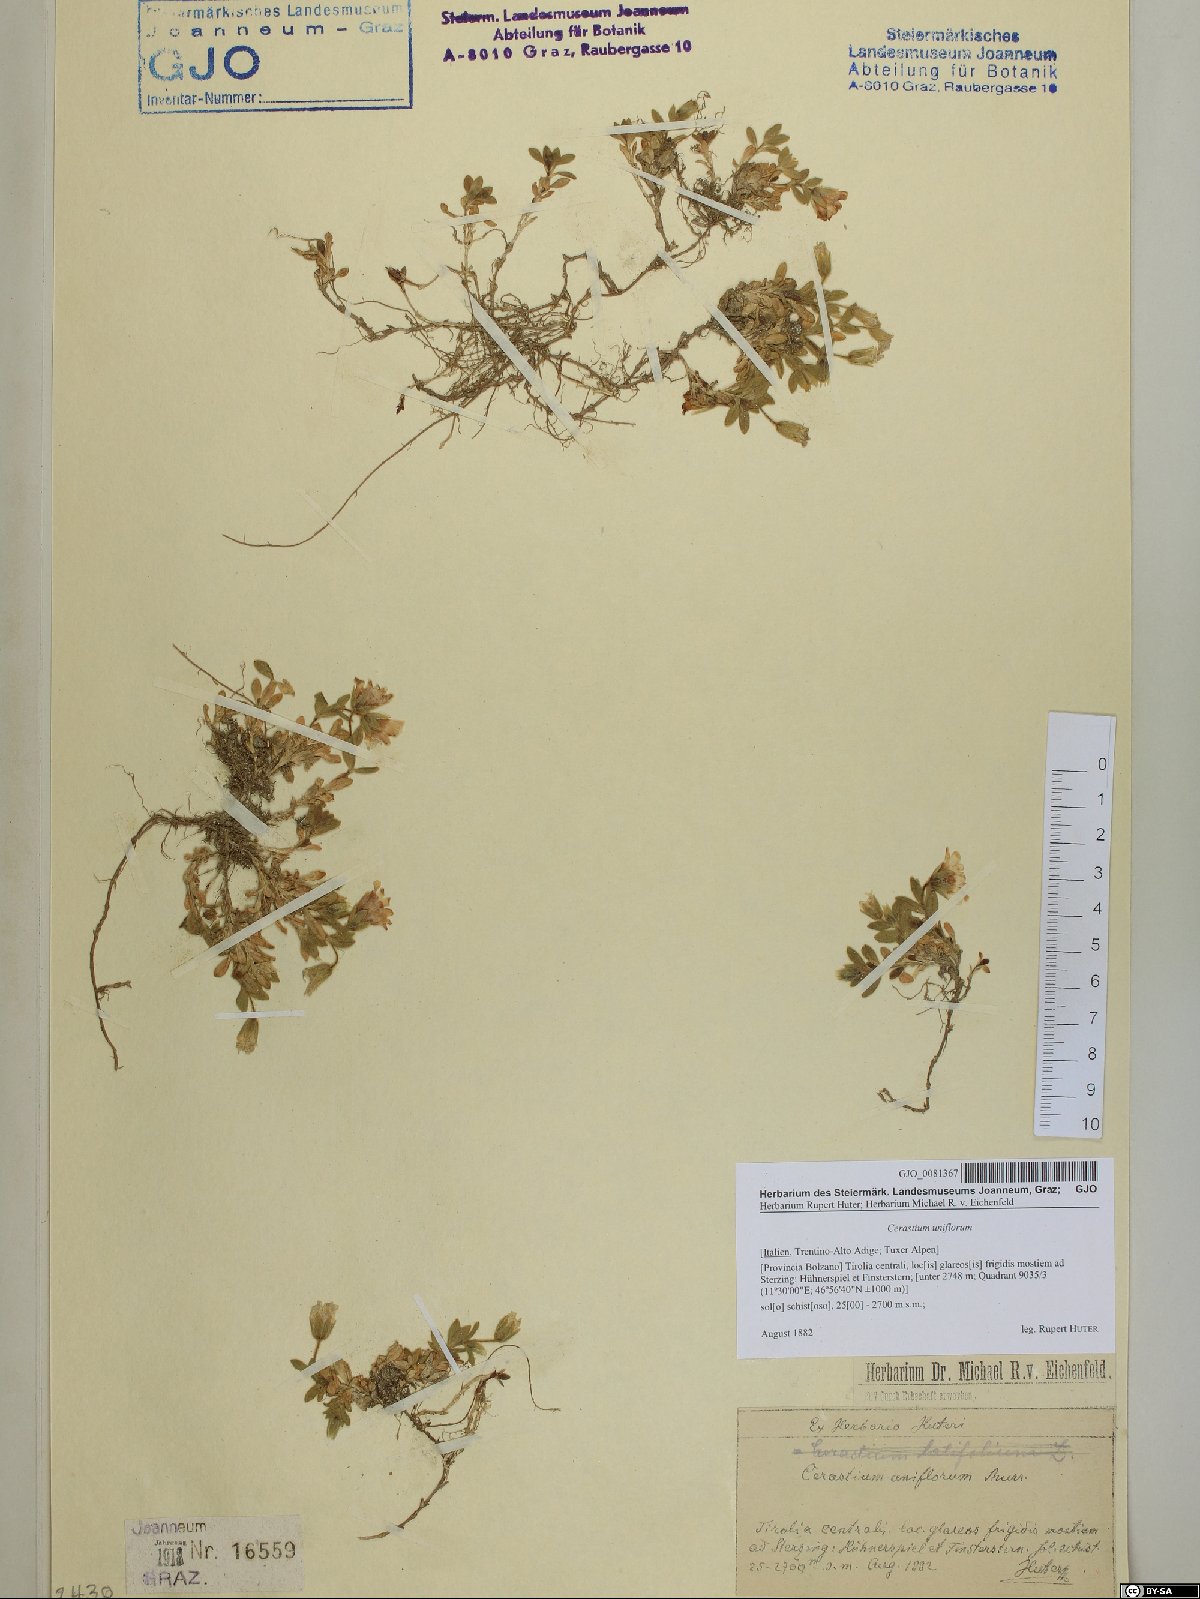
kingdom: Plantae
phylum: Tracheophyta
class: Magnoliopsida
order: Caryophyllales
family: Caryophyllaceae
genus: Cerastium
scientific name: Cerastium uniflorum
